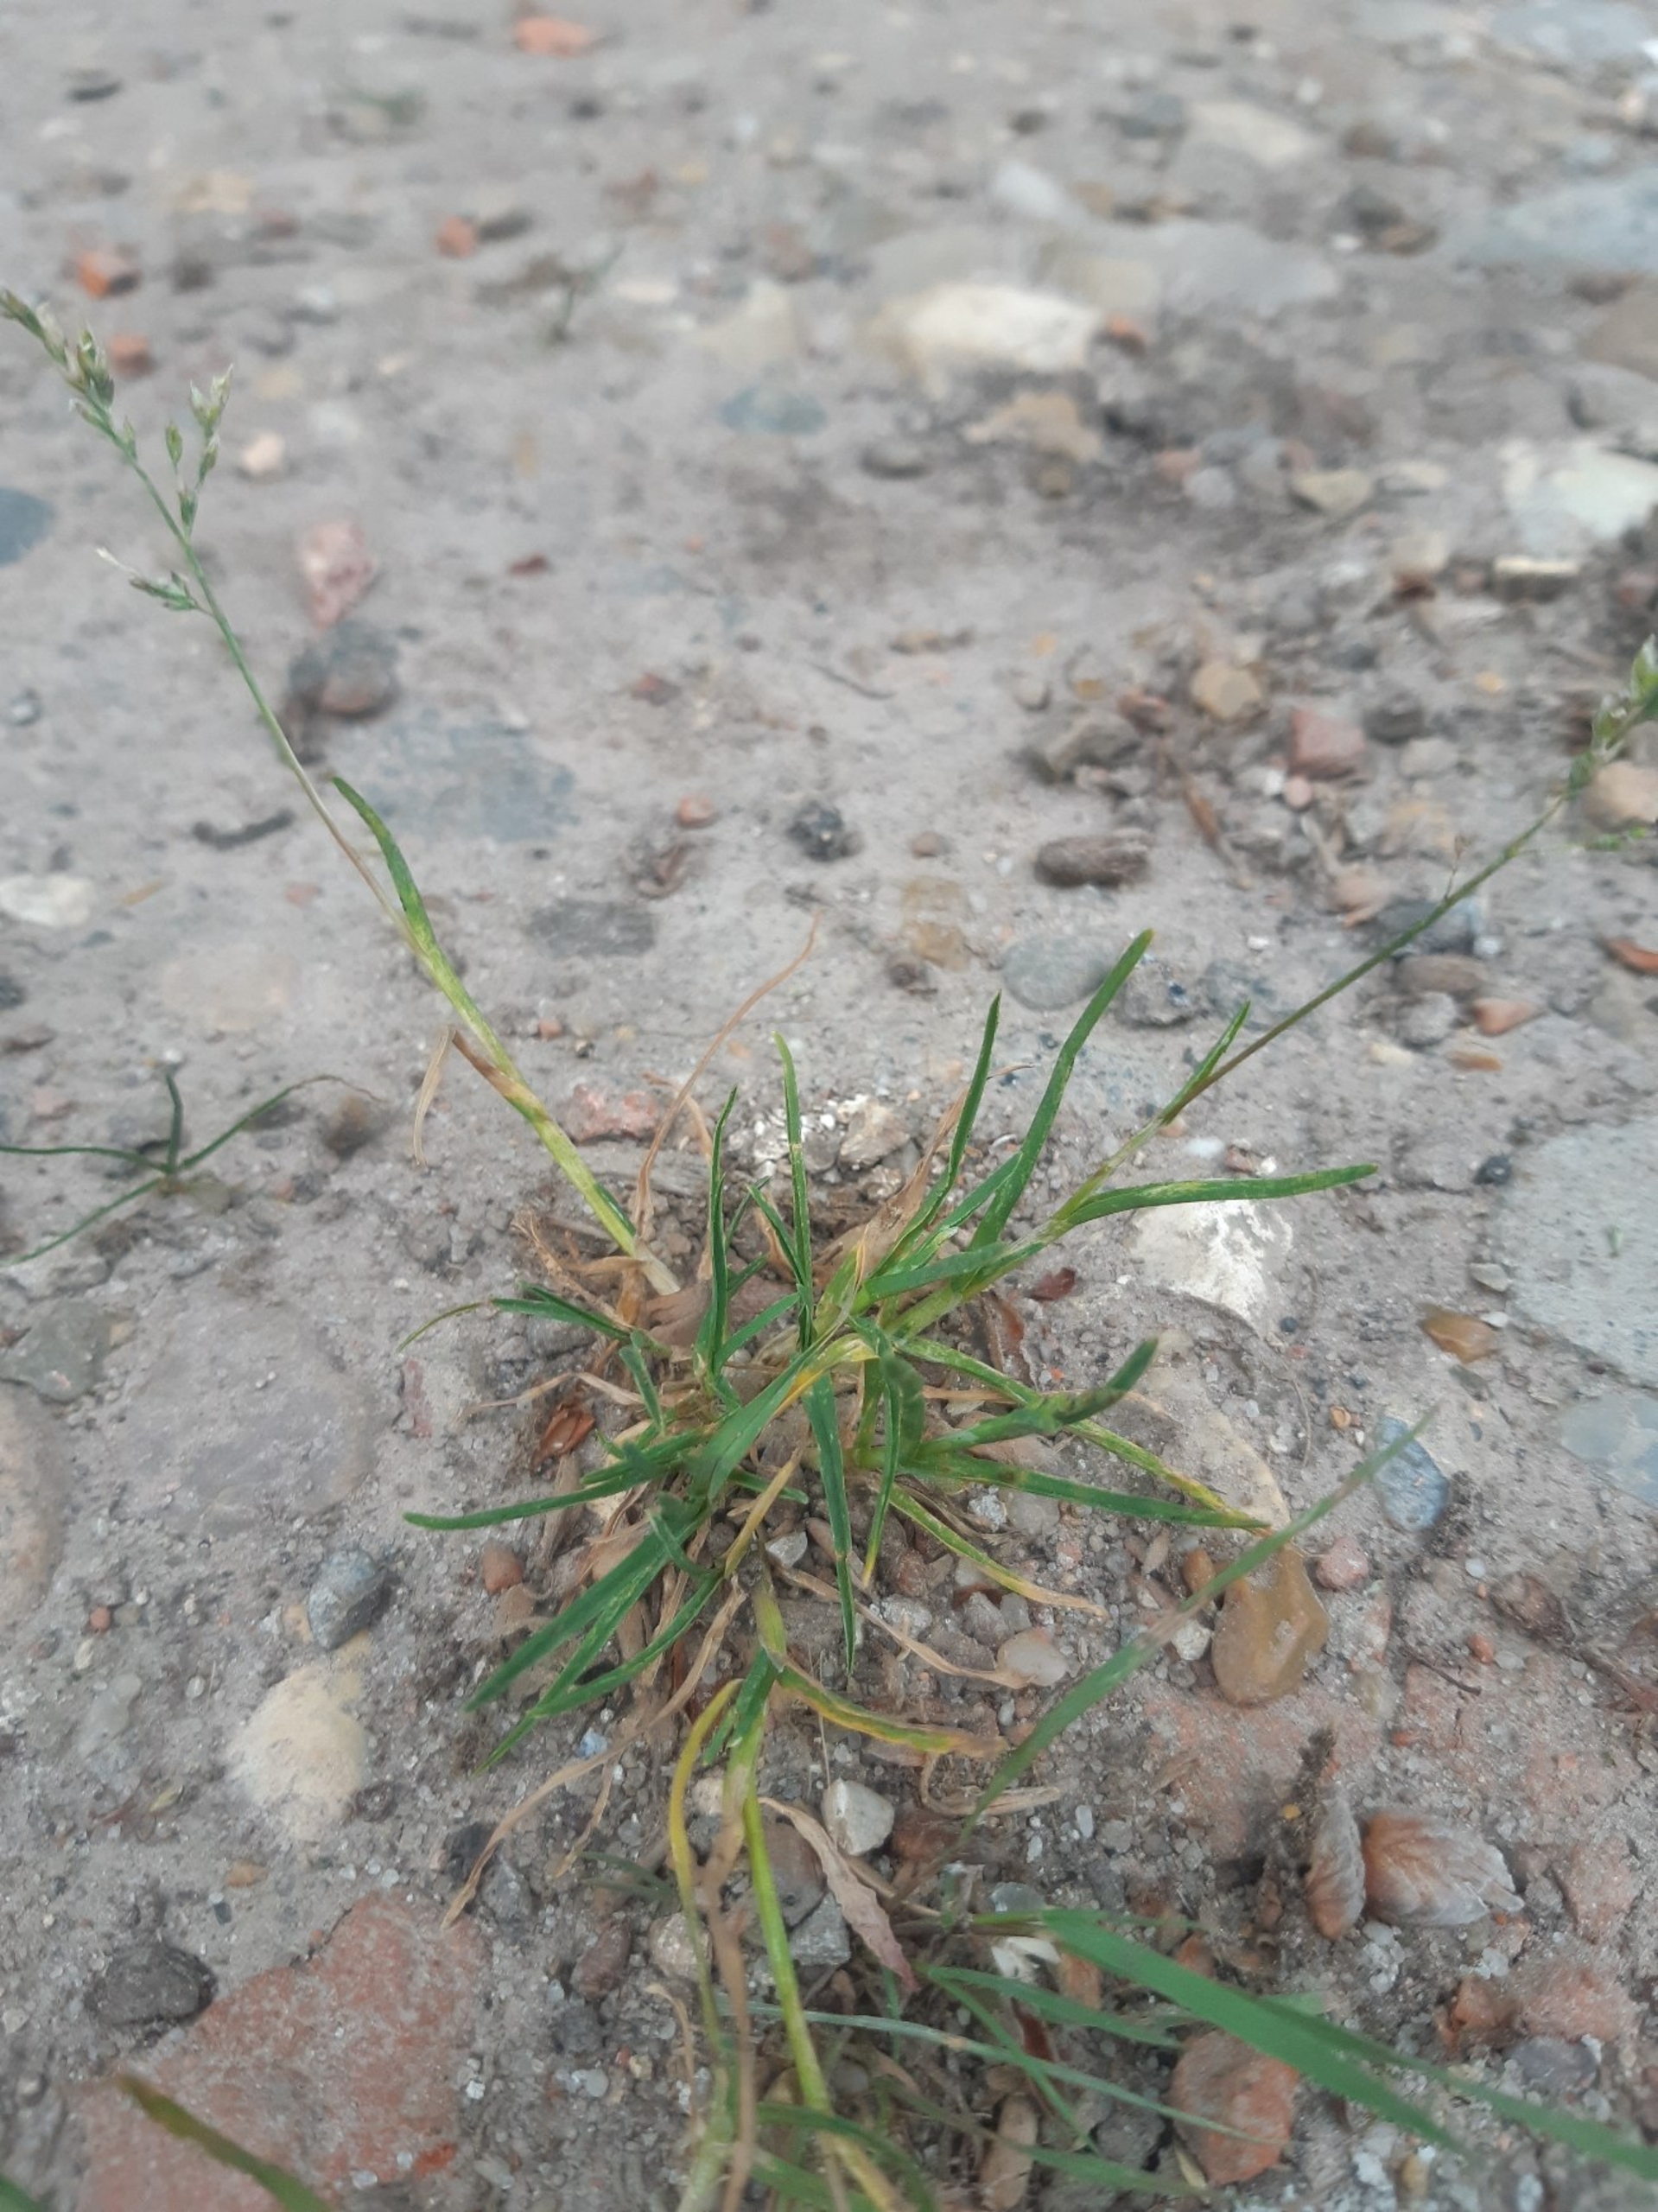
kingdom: Plantae
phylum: Tracheophyta
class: Liliopsida
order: Poales
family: Poaceae
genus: Poa
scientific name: Poa annua
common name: Enårig rapgræs
